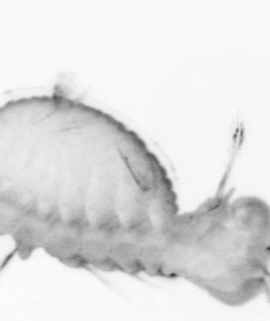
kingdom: Animalia
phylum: Annelida
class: Polychaeta
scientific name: Polychaeta
